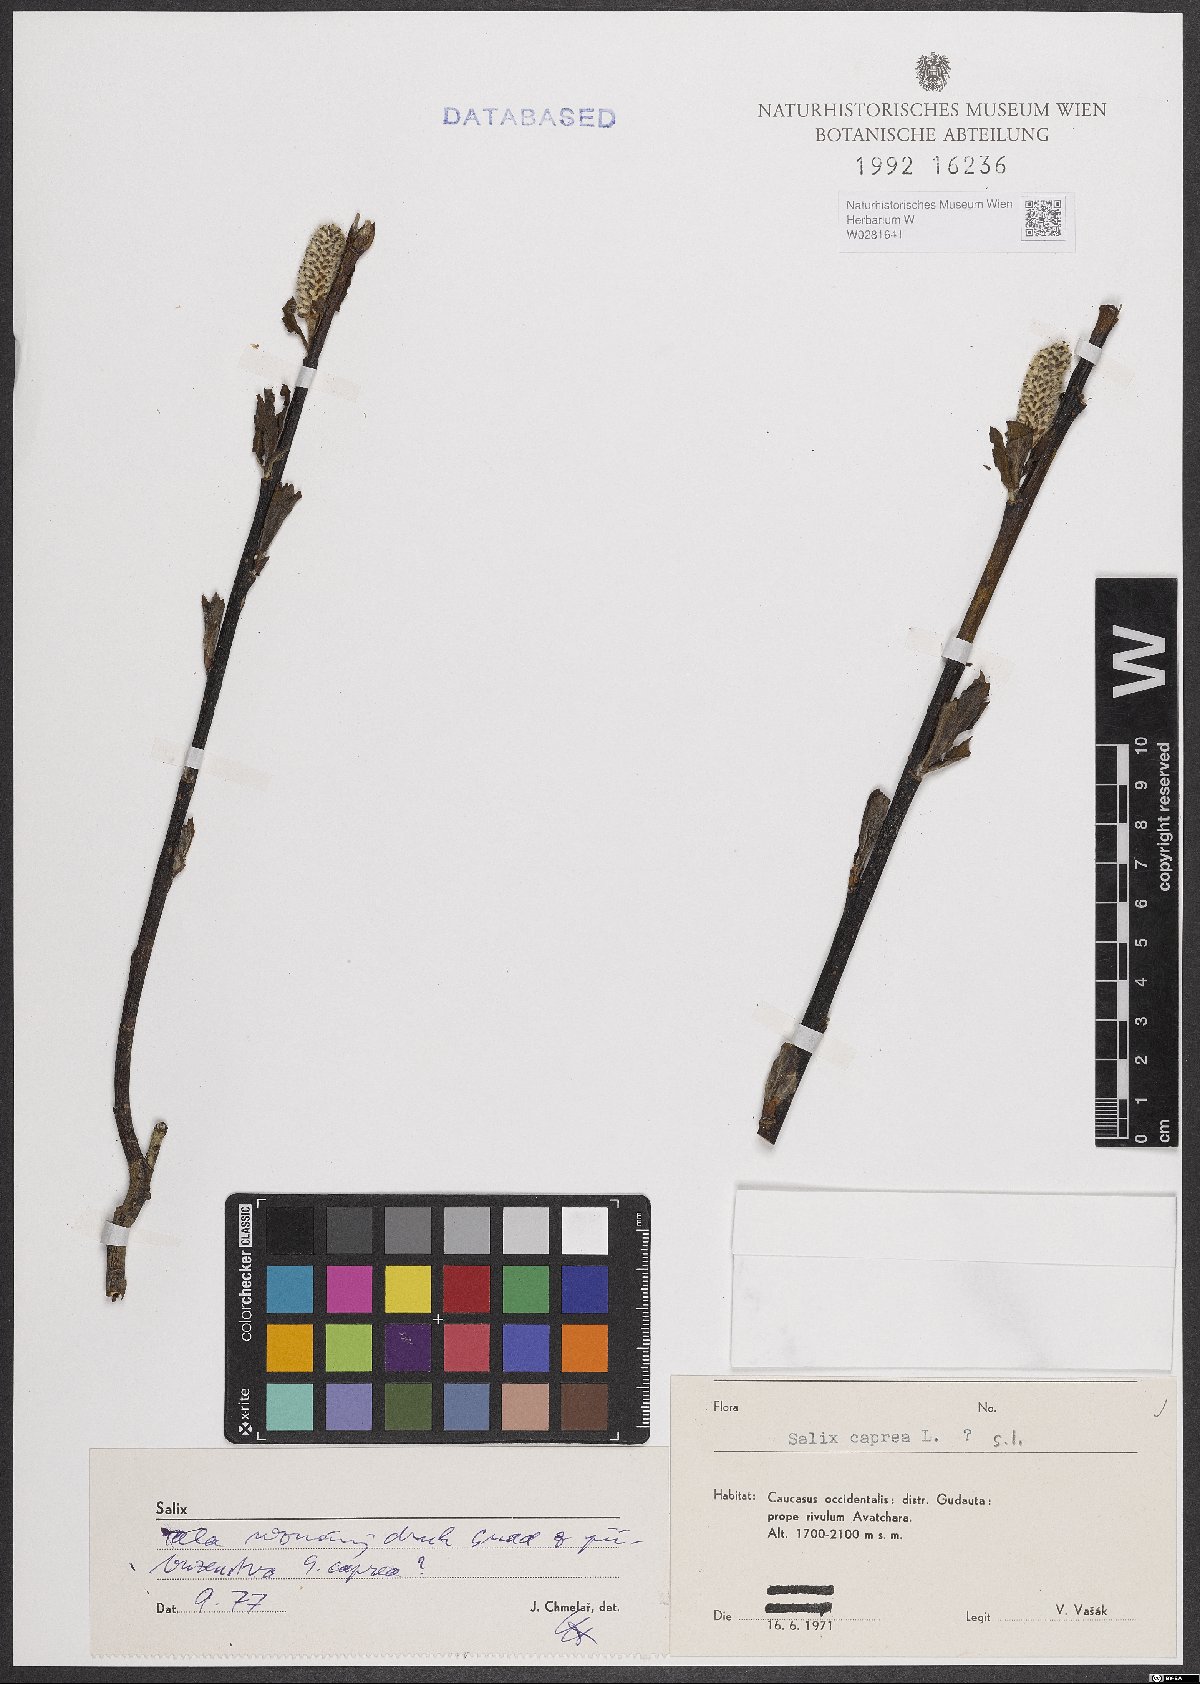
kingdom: Plantae
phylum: Tracheophyta
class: Magnoliopsida
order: Malpighiales
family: Salicaceae
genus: Salix
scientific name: Salix caprea
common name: Goat willow
